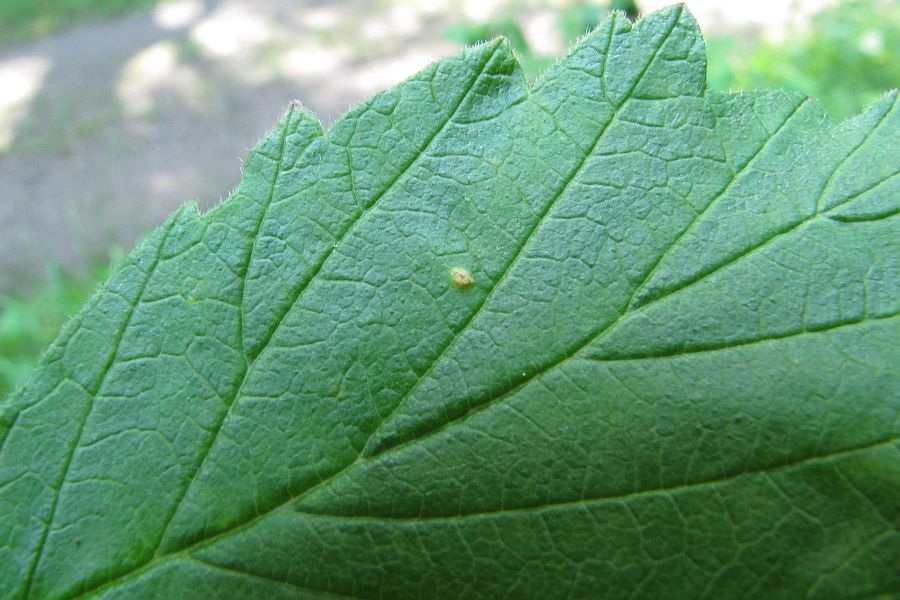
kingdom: Fungi
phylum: Basidiomycota
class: Pucciniomycetes
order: Pucciniales
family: Phragmidiaceae
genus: Phragmidium
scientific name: Phragmidium rubi-idaei
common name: hindbær-flercellerust
